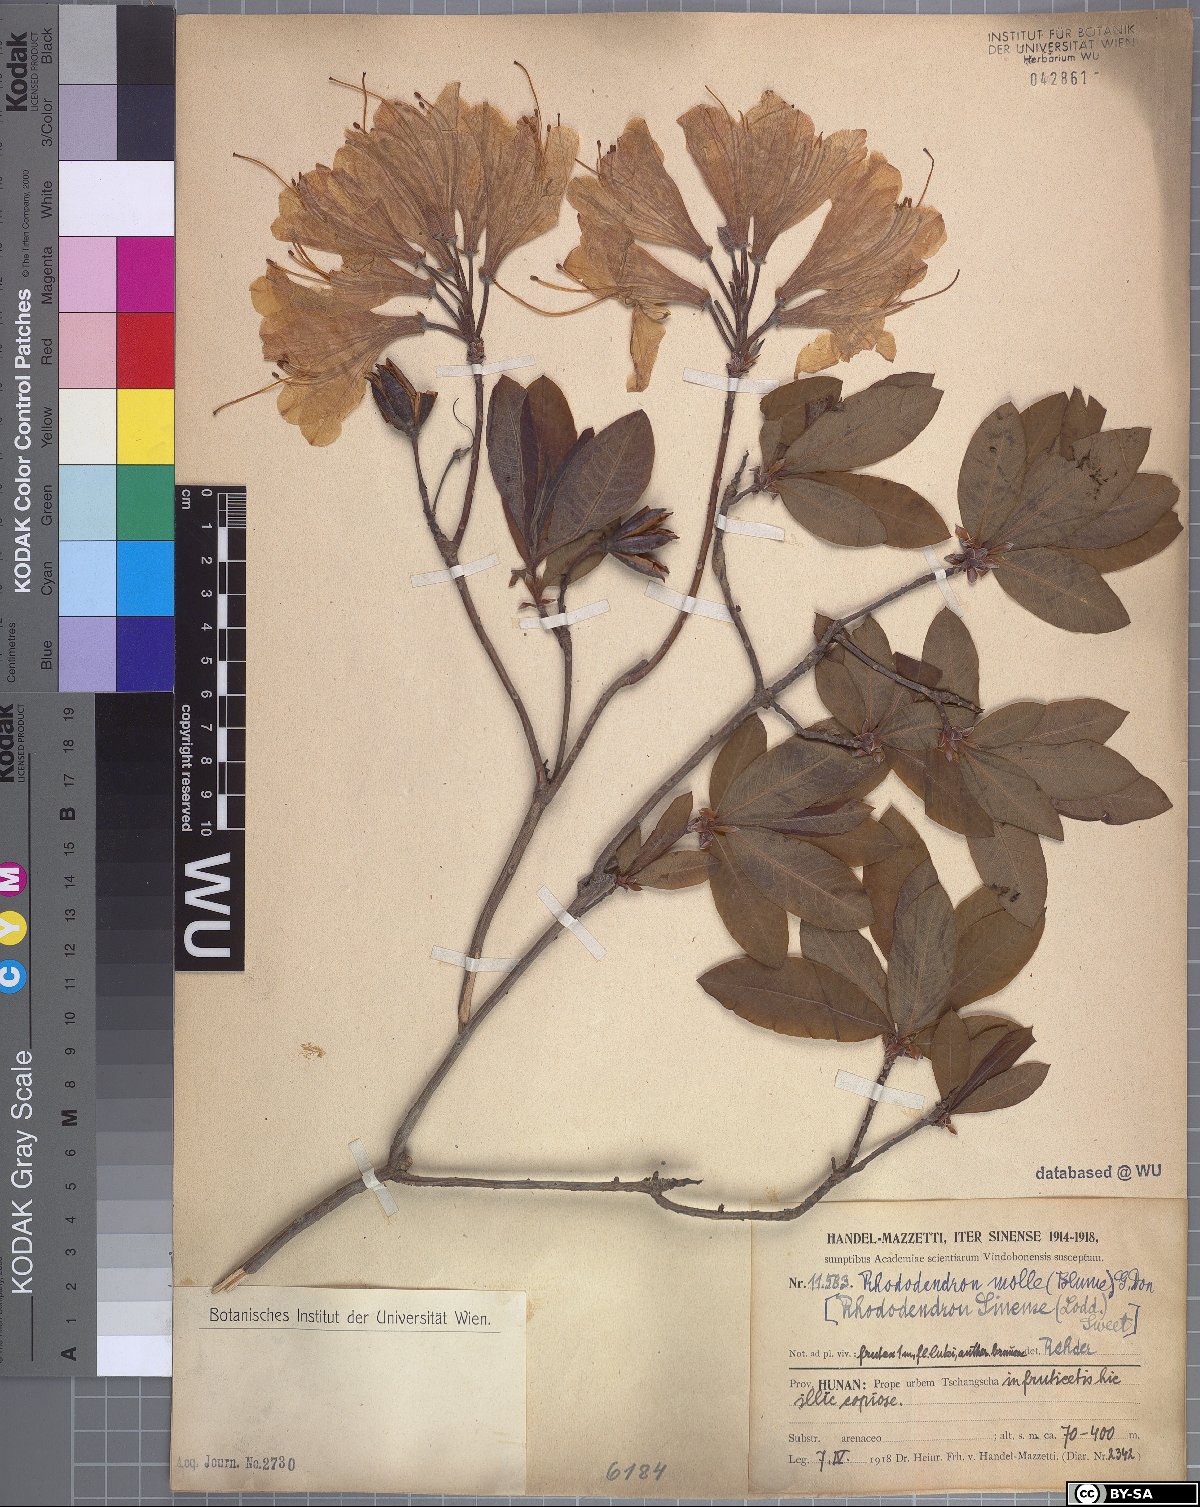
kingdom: Plantae
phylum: Tracheophyta
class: Magnoliopsida
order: Ericales
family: Ericaceae
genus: Rhododendron
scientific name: Rhododendron molle
